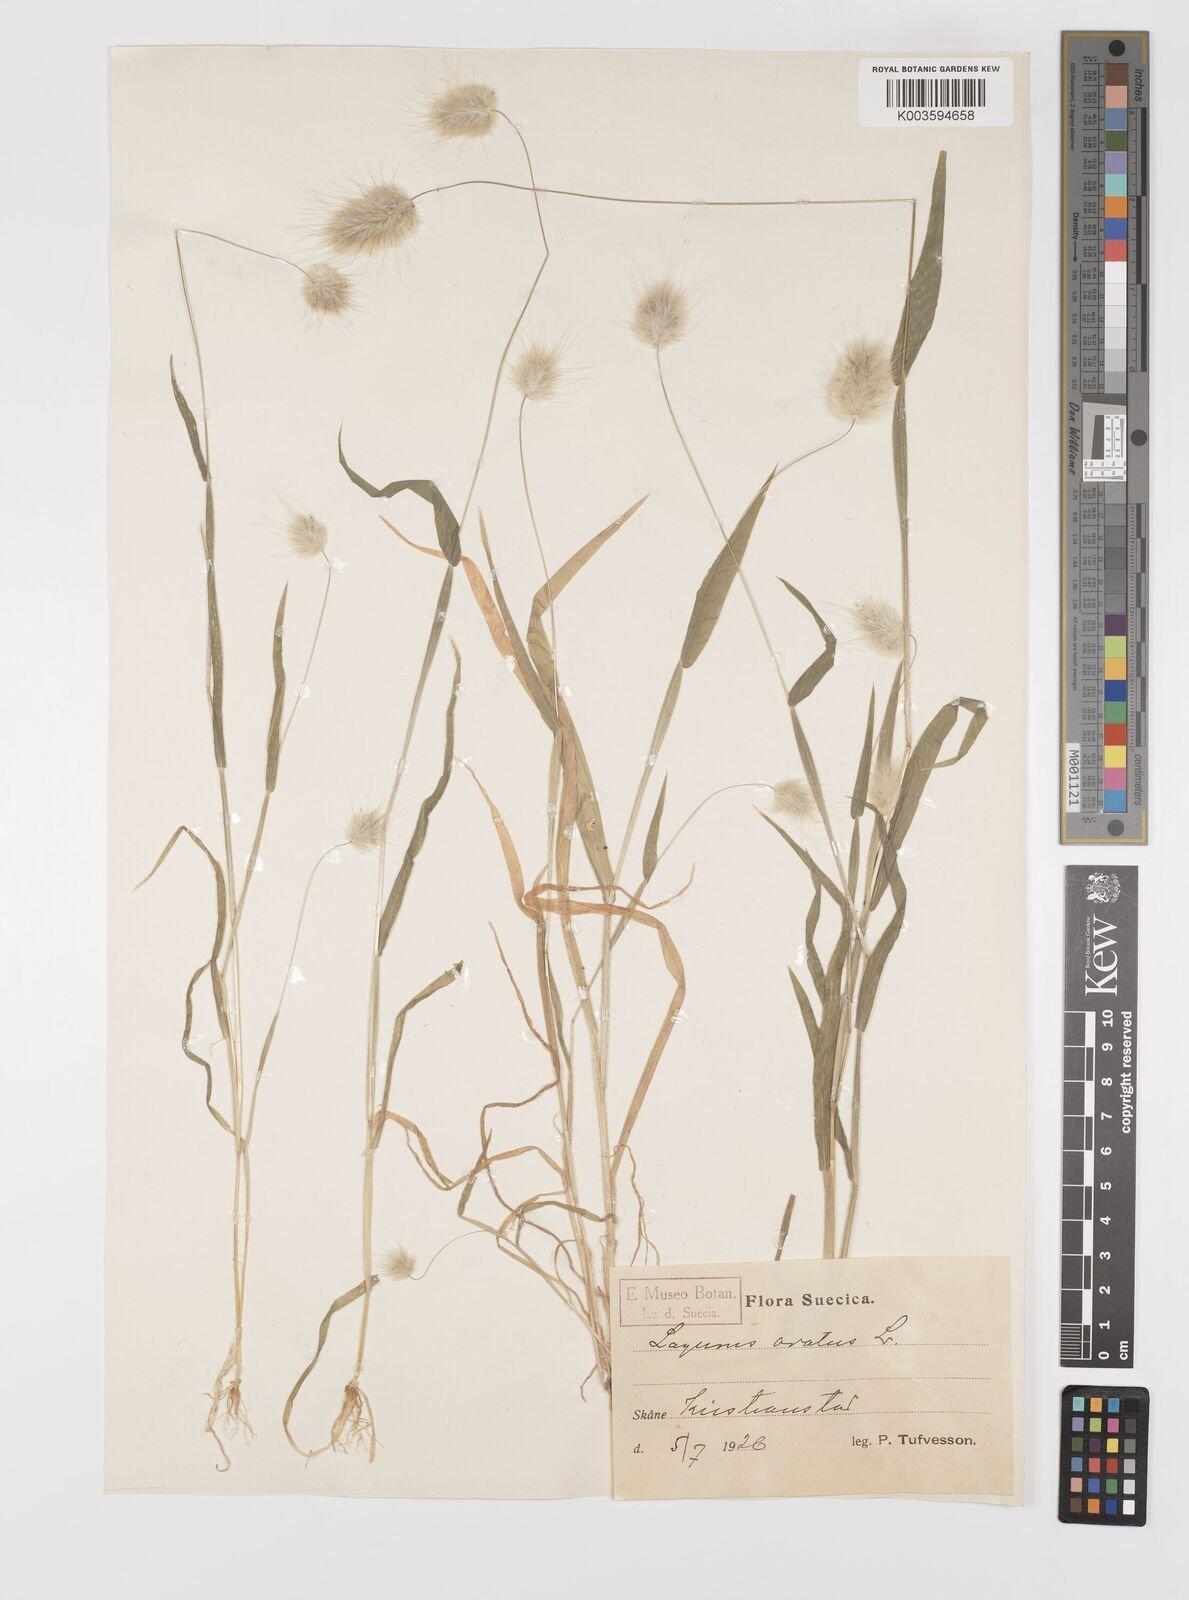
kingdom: Plantae
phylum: Tracheophyta
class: Liliopsida
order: Poales
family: Poaceae
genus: Lagurus
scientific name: Lagurus ovatus
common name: Hare's-tail
